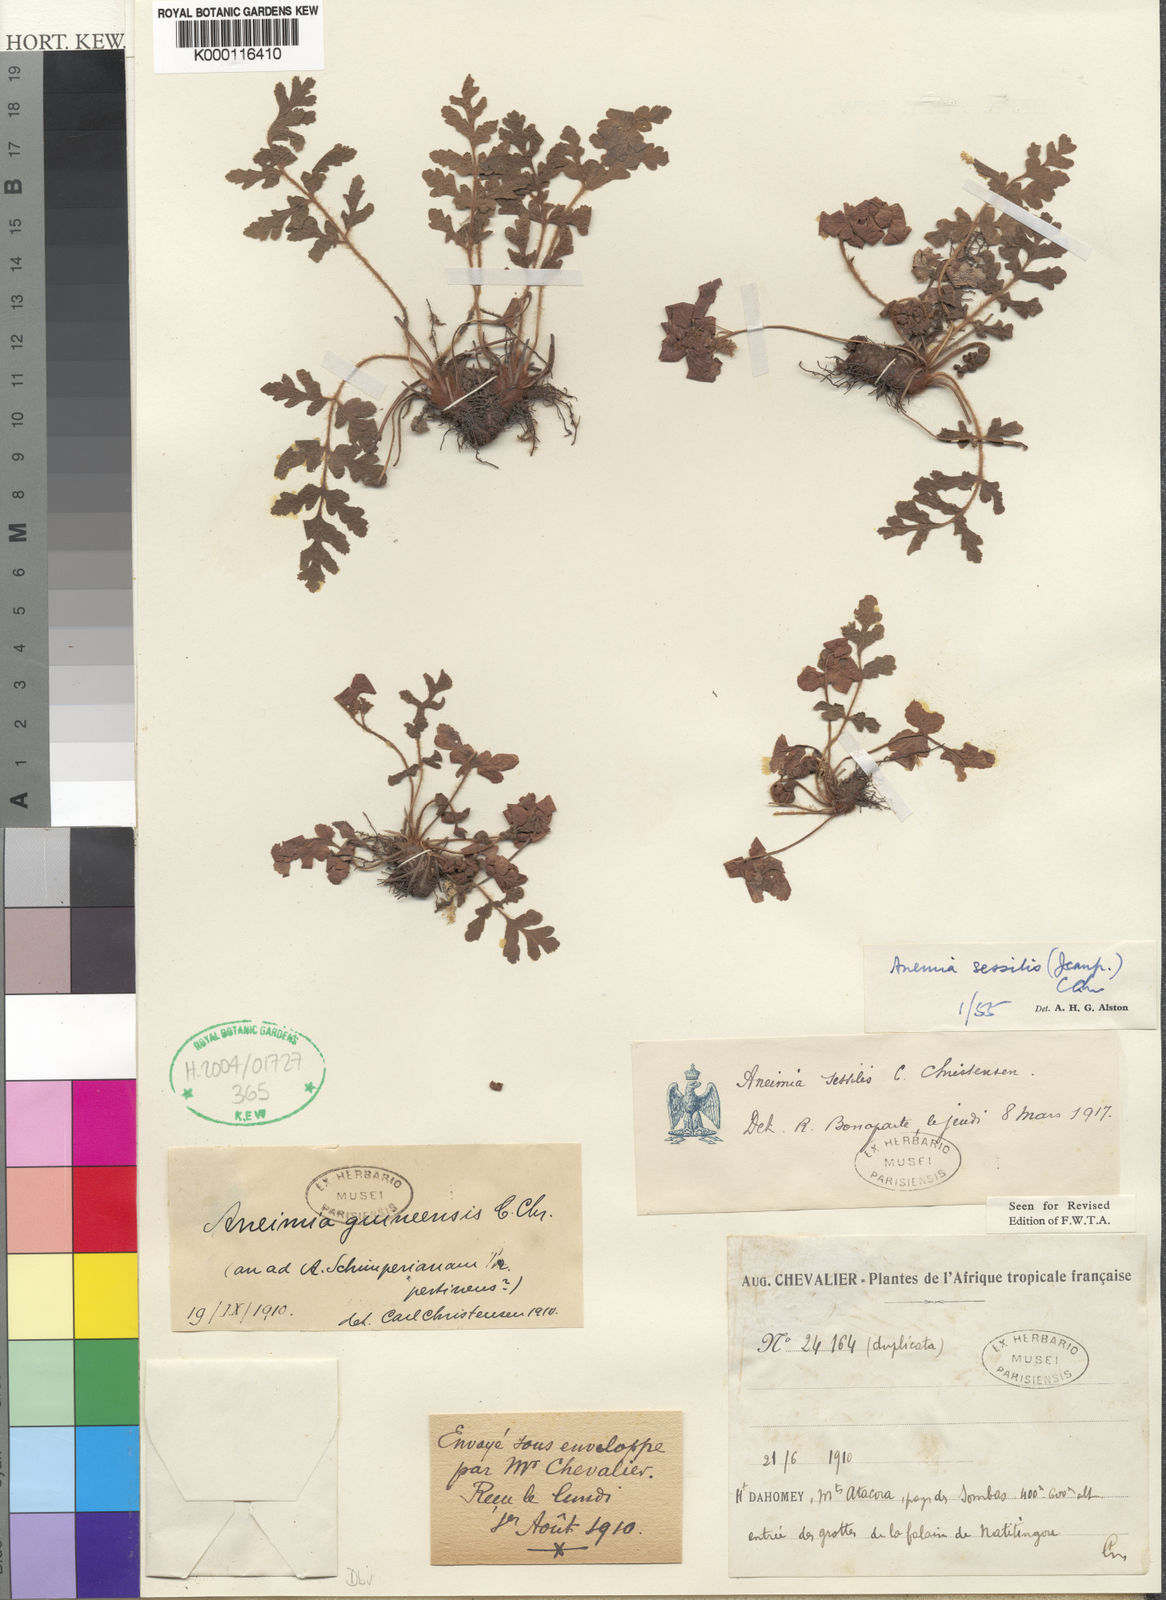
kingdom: Plantae
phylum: Tracheophyta
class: Polypodiopsida
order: Schizaeales
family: Anemiaceae
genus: Anemia
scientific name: Anemia sessilis
